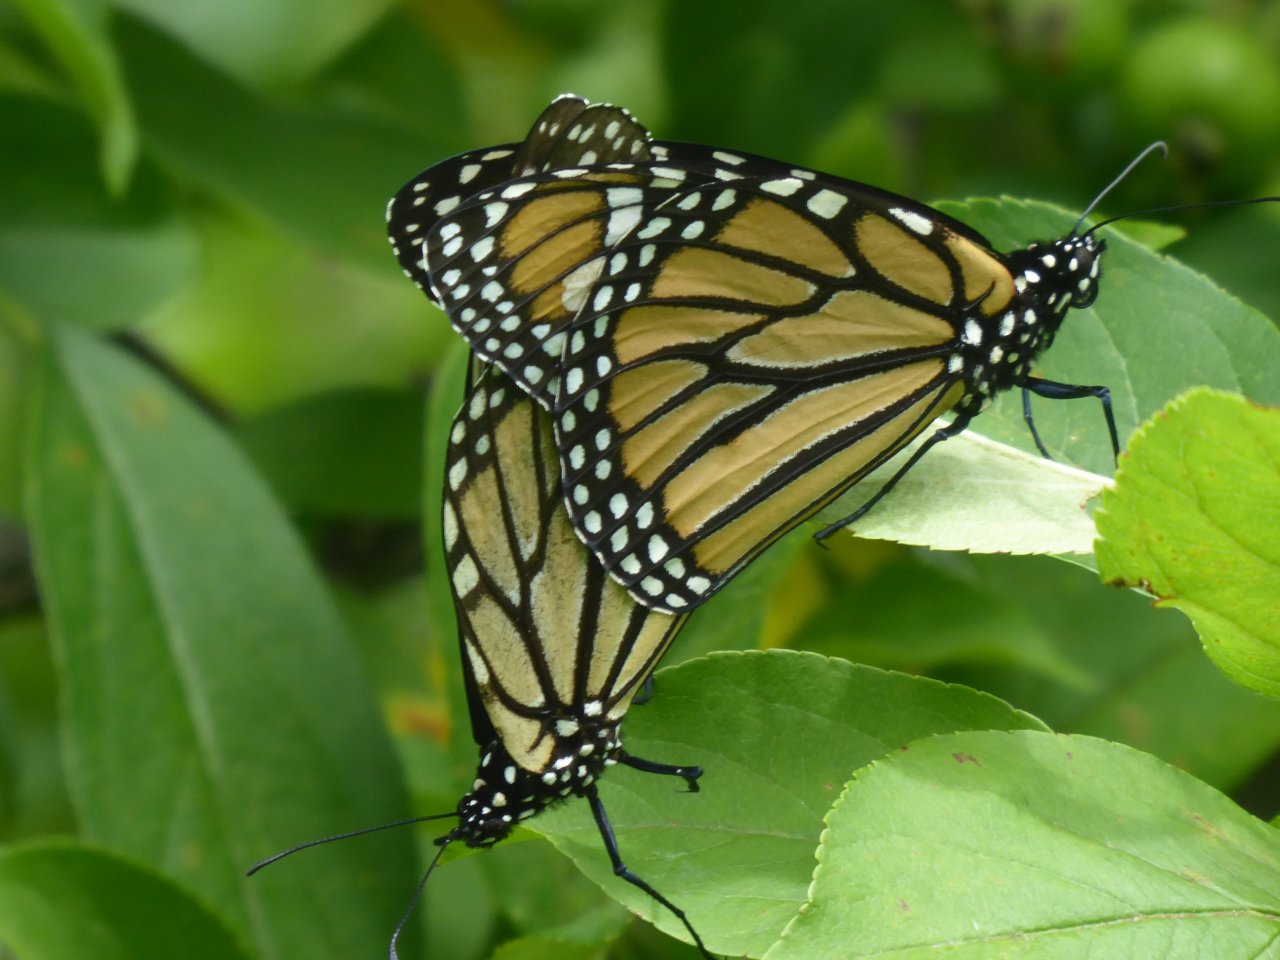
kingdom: Animalia
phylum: Arthropoda
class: Insecta
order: Lepidoptera
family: Nymphalidae
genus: Danaus
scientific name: Danaus plexippus
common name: Monarch
